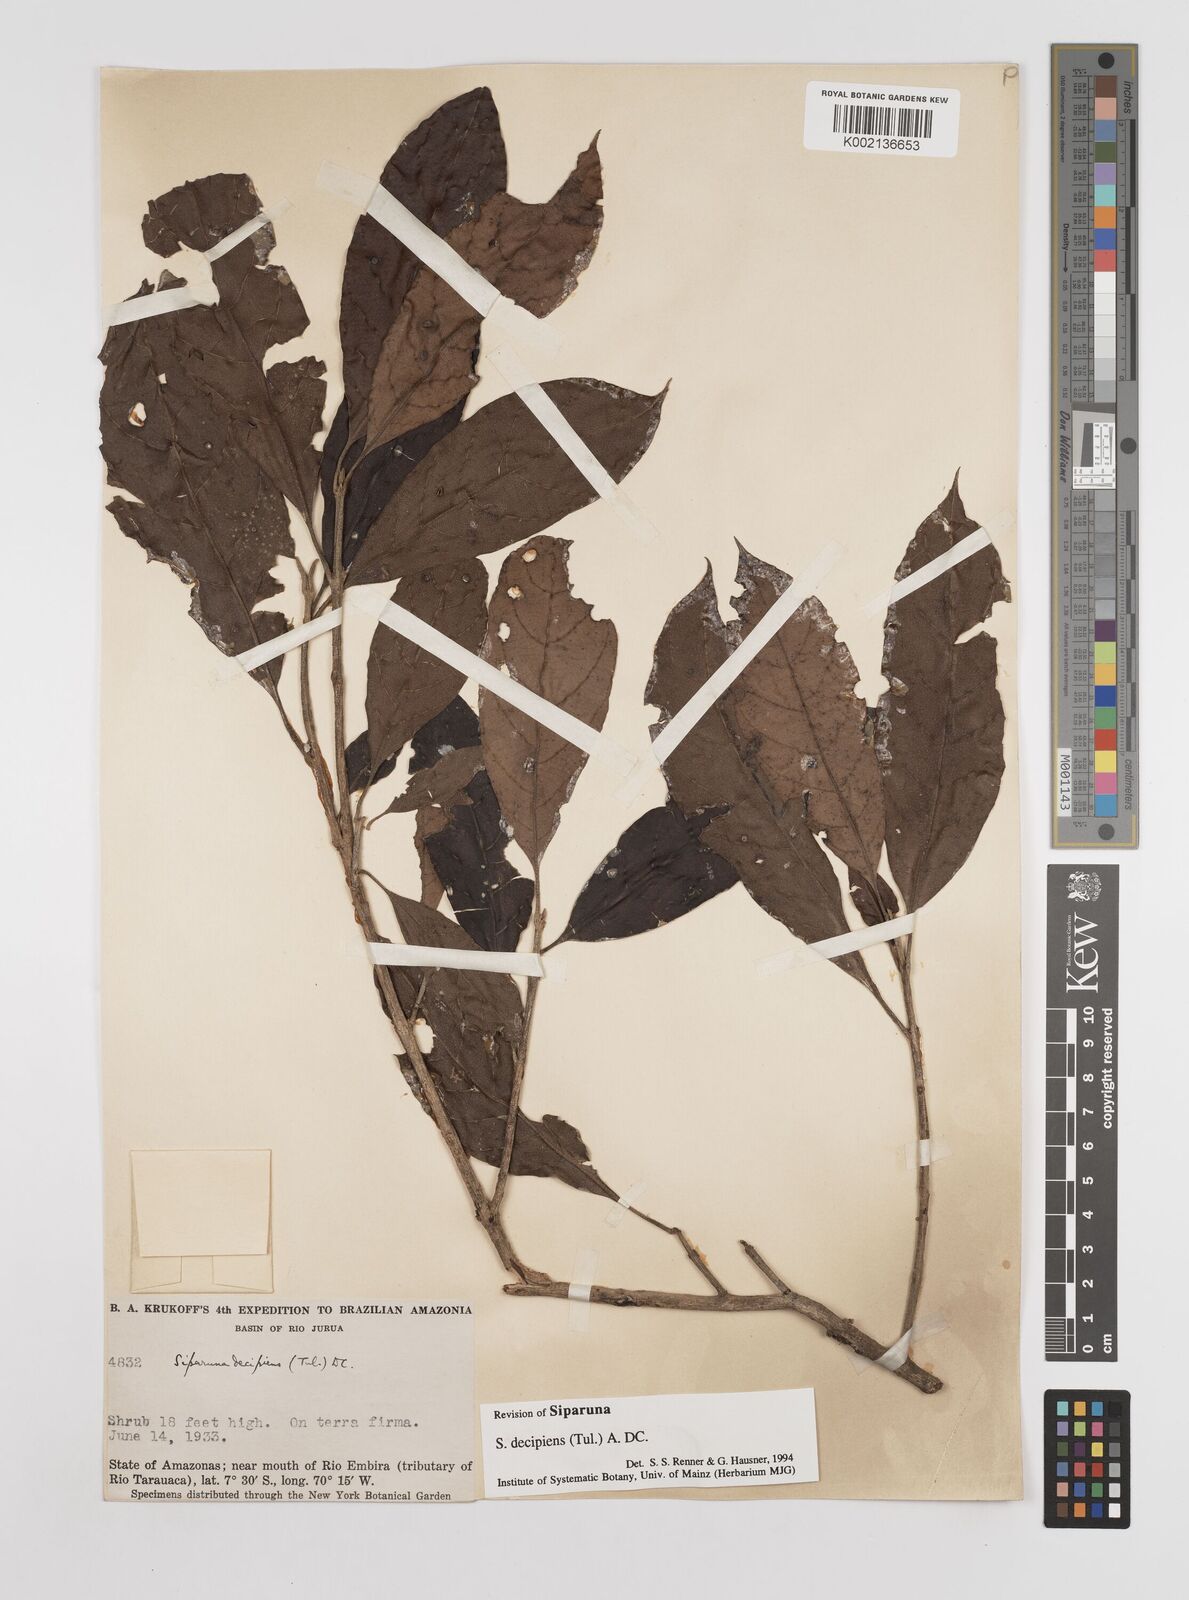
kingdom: Plantae
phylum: Tracheophyta
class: Magnoliopsida
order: Laurales
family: Siparunaceae
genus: Siparuna
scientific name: Siparuna decipiens
